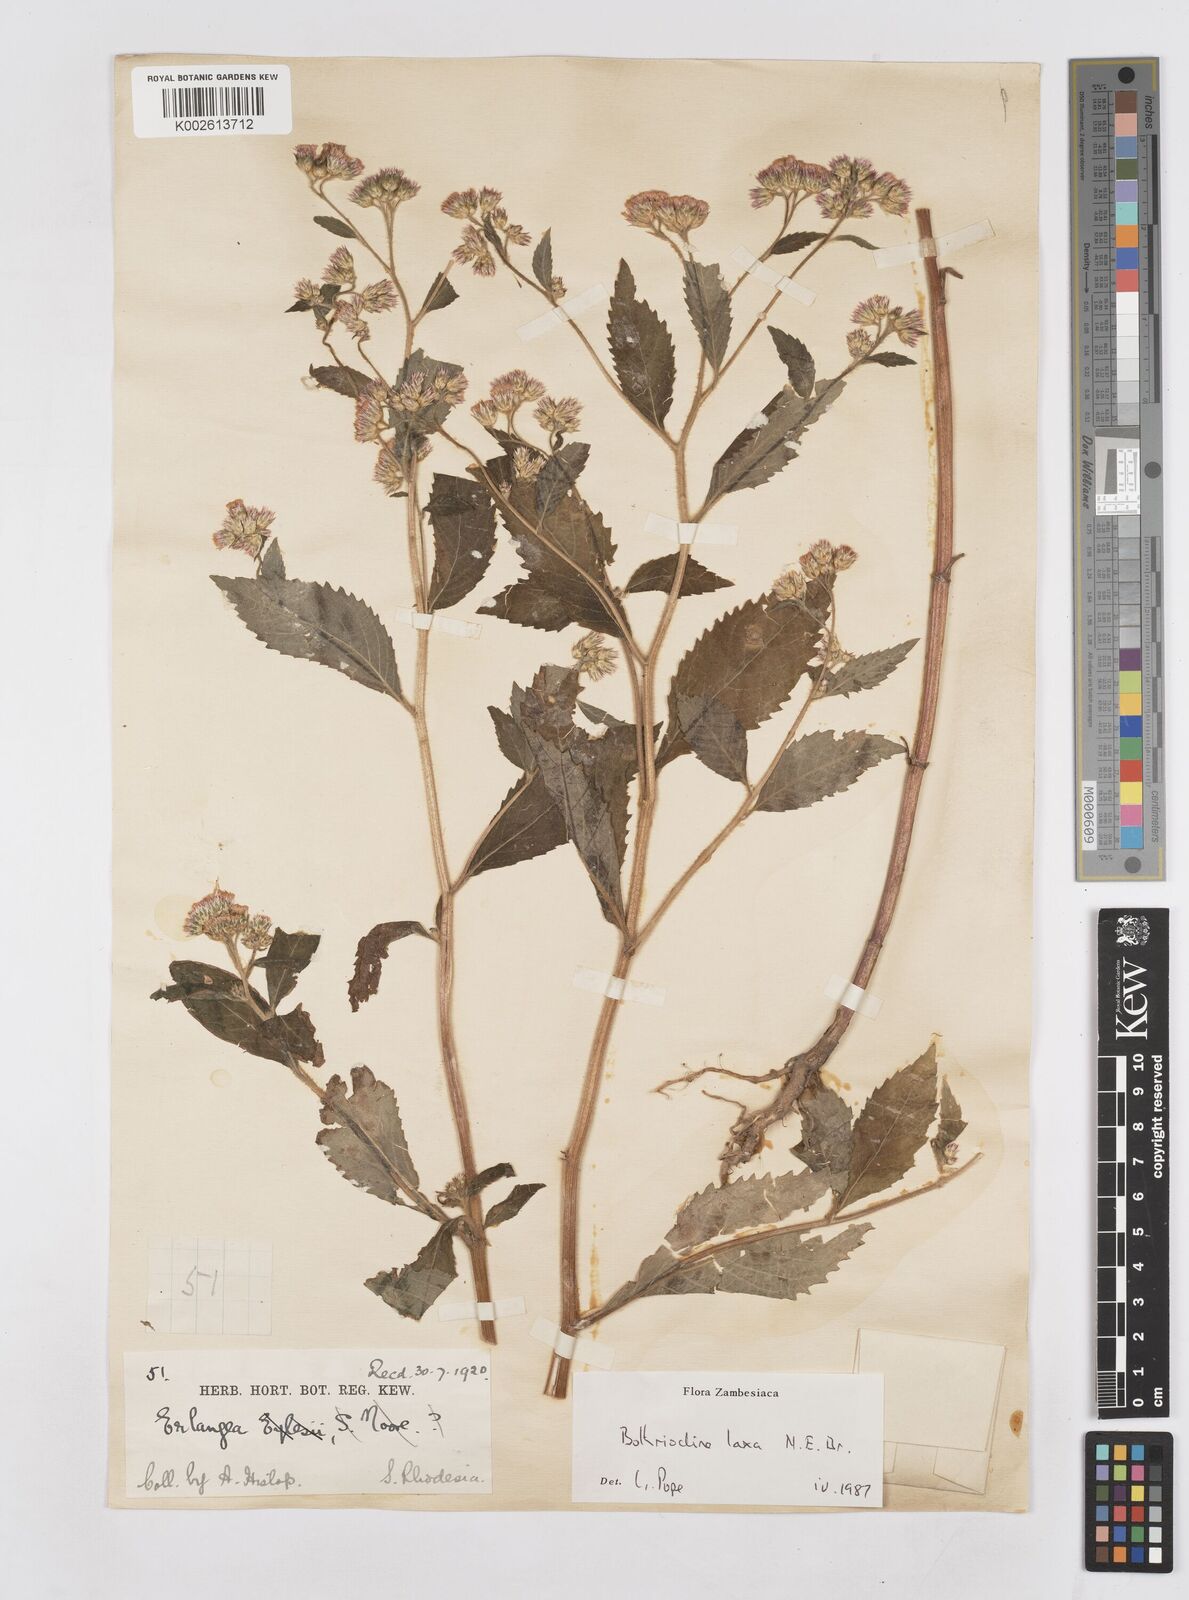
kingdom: Plantae
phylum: Tracheophyta
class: Magnoliopsida
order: Asterales
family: Asteraceae
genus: Bothriocline
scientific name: Bothriocline laxa
